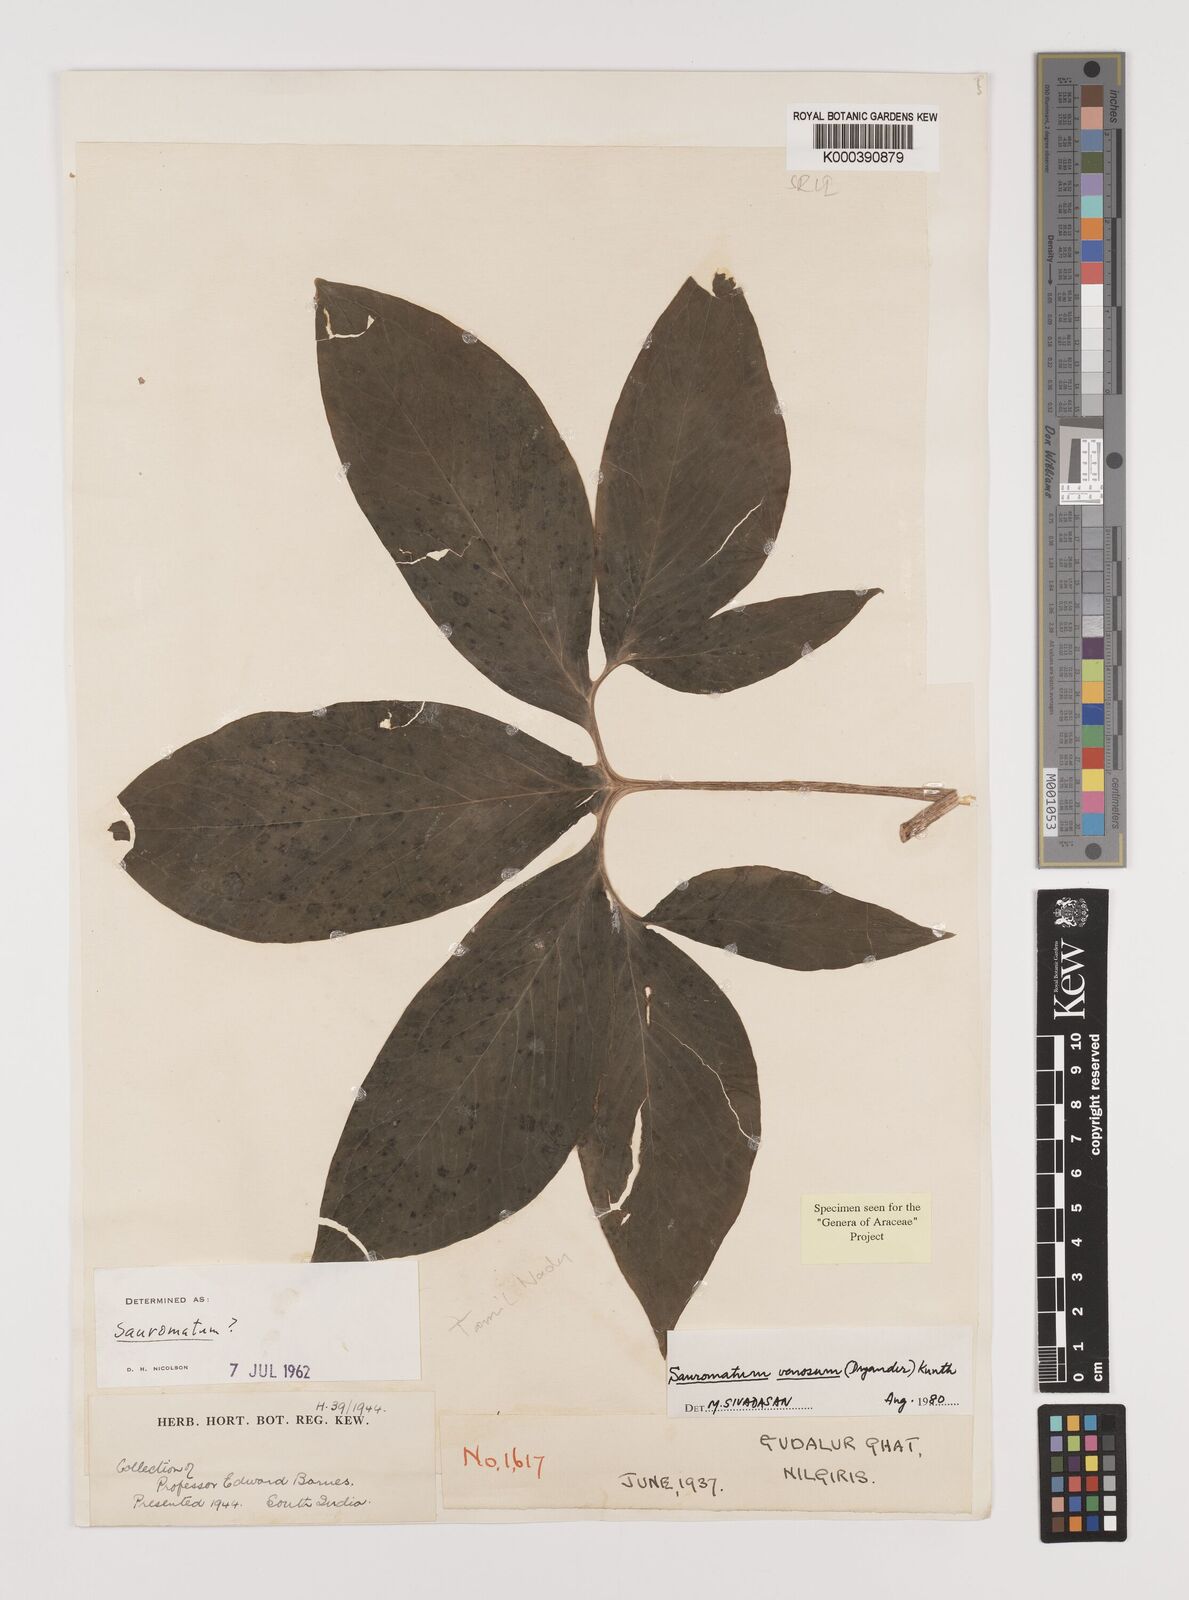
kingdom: Plantae
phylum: Tracheophyta
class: Liliopsida
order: Alismatales
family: Araceae
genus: Sauromatum
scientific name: Sauromatum venosum
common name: Voodoo lily
